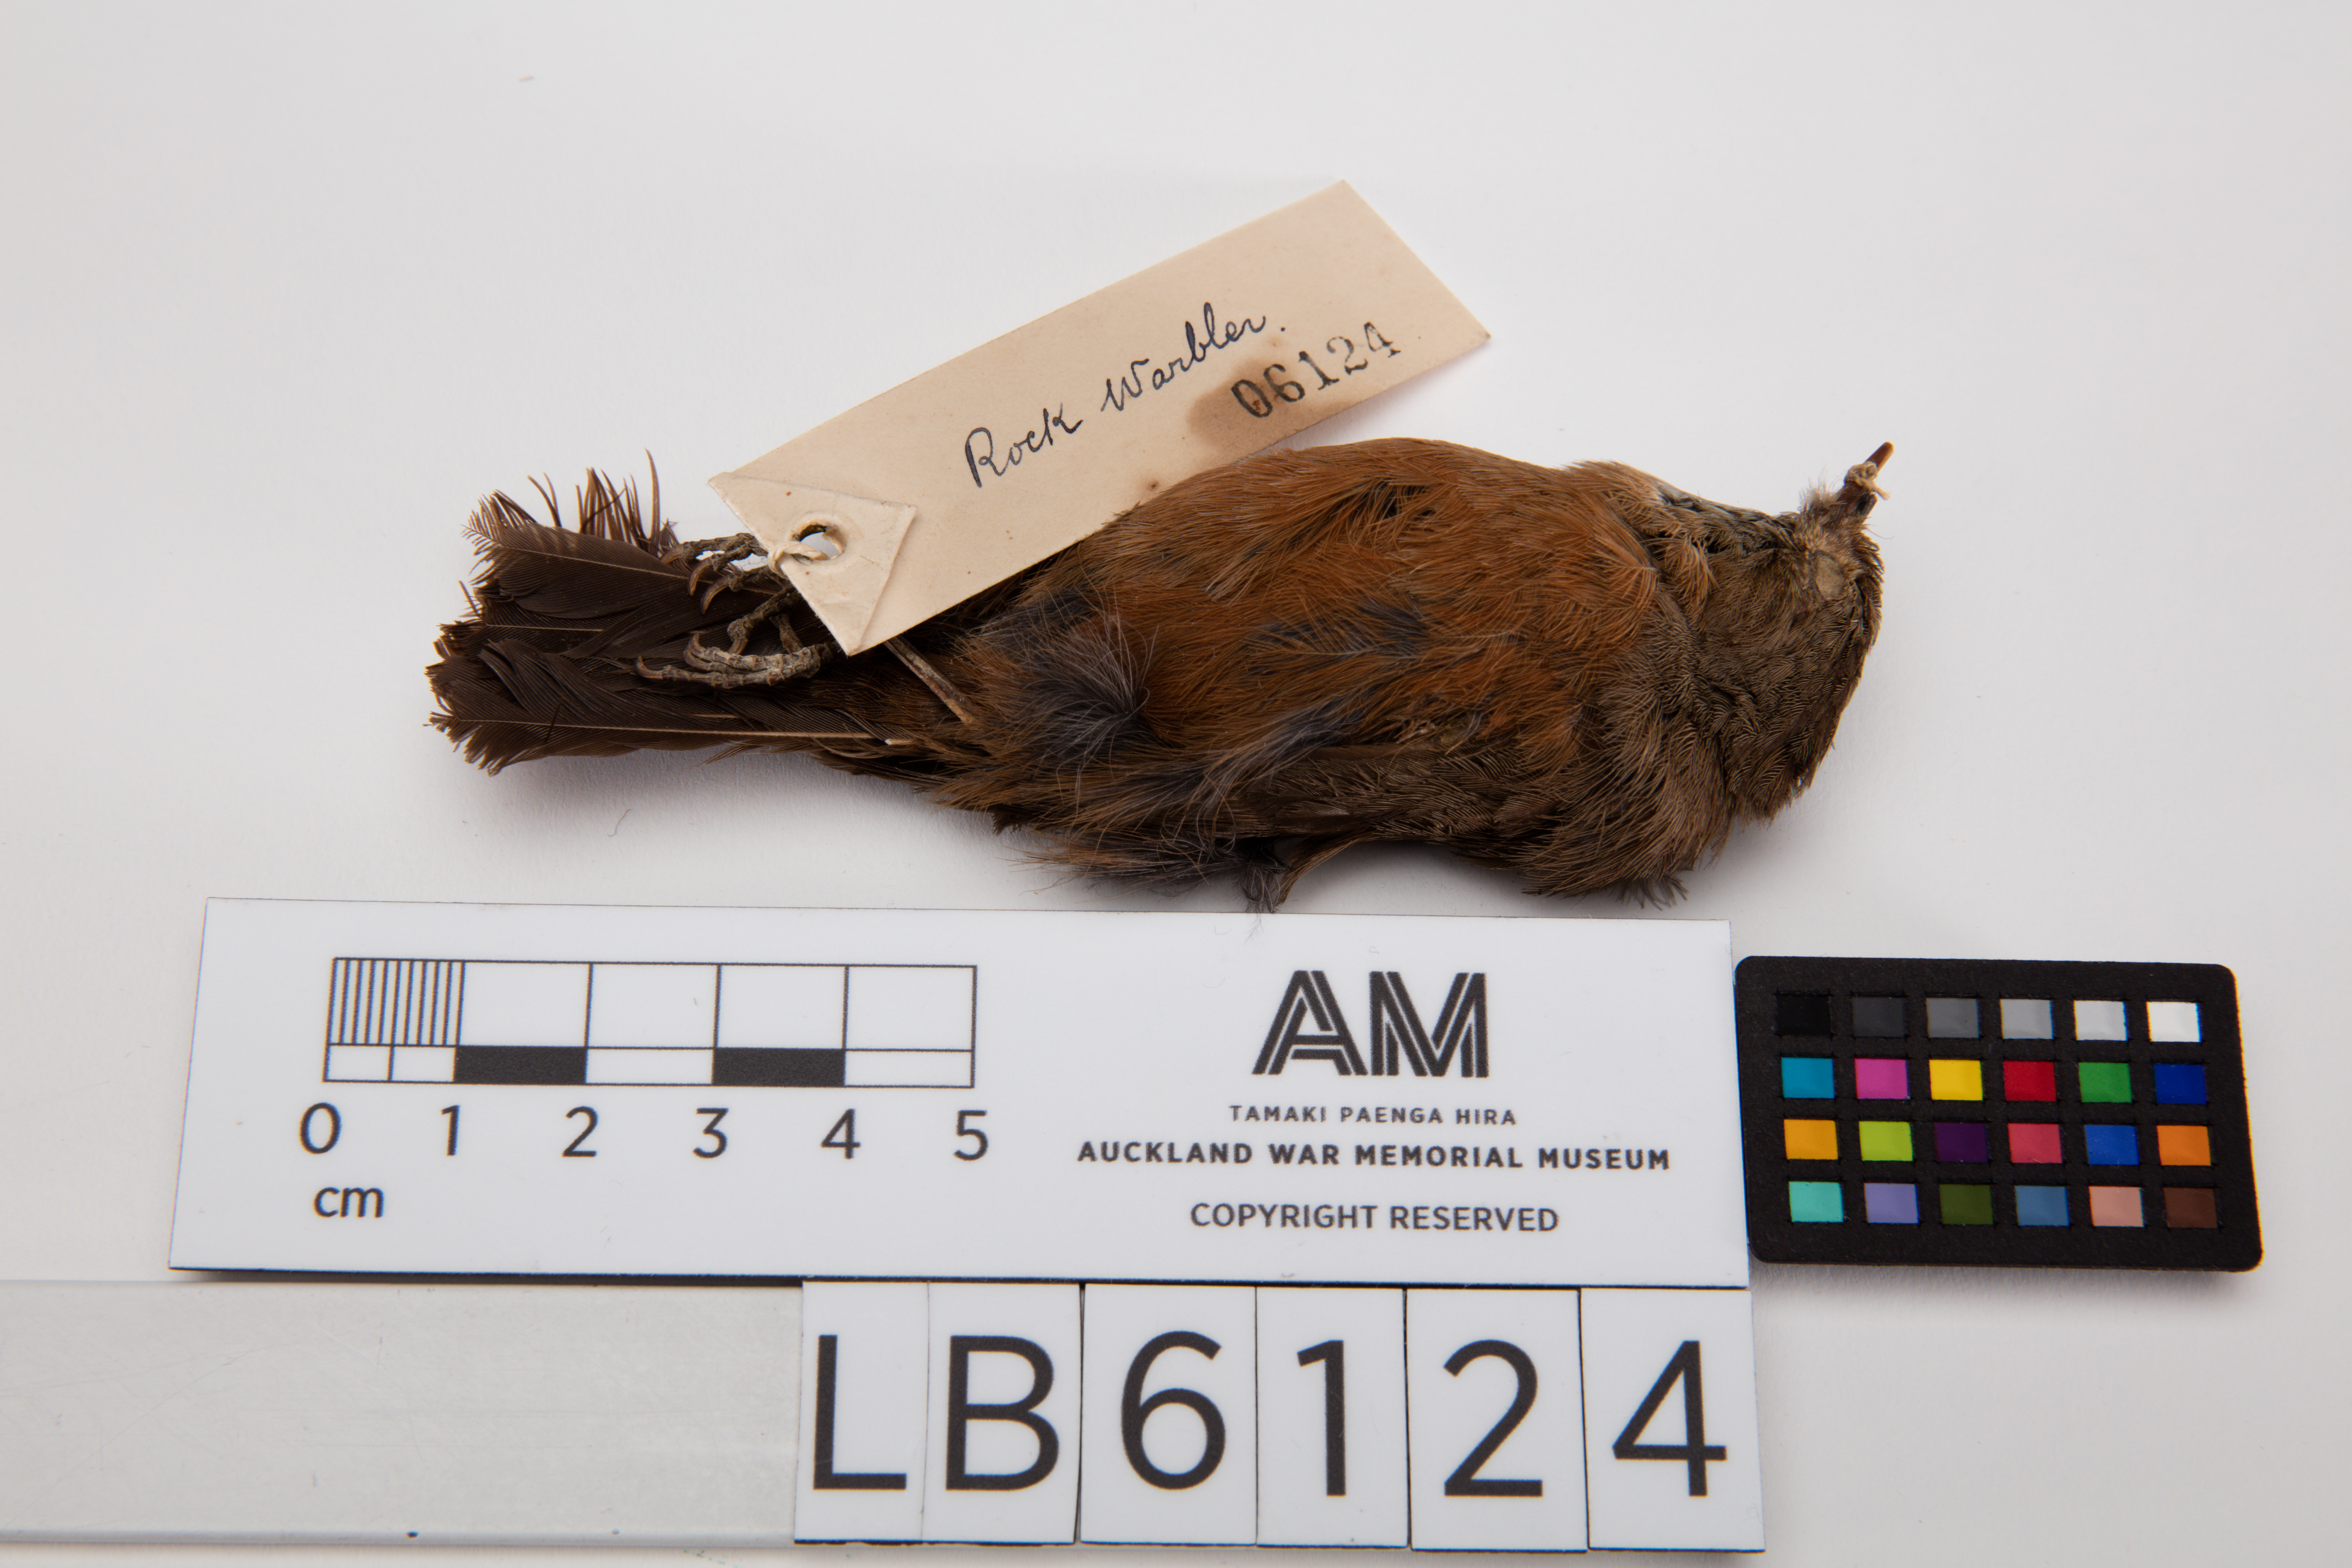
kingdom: Animalia
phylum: Chordata
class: Aves
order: Passeriformes
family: Acanthizidae
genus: Origma
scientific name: Origma solitaria
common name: Rockwarbler
